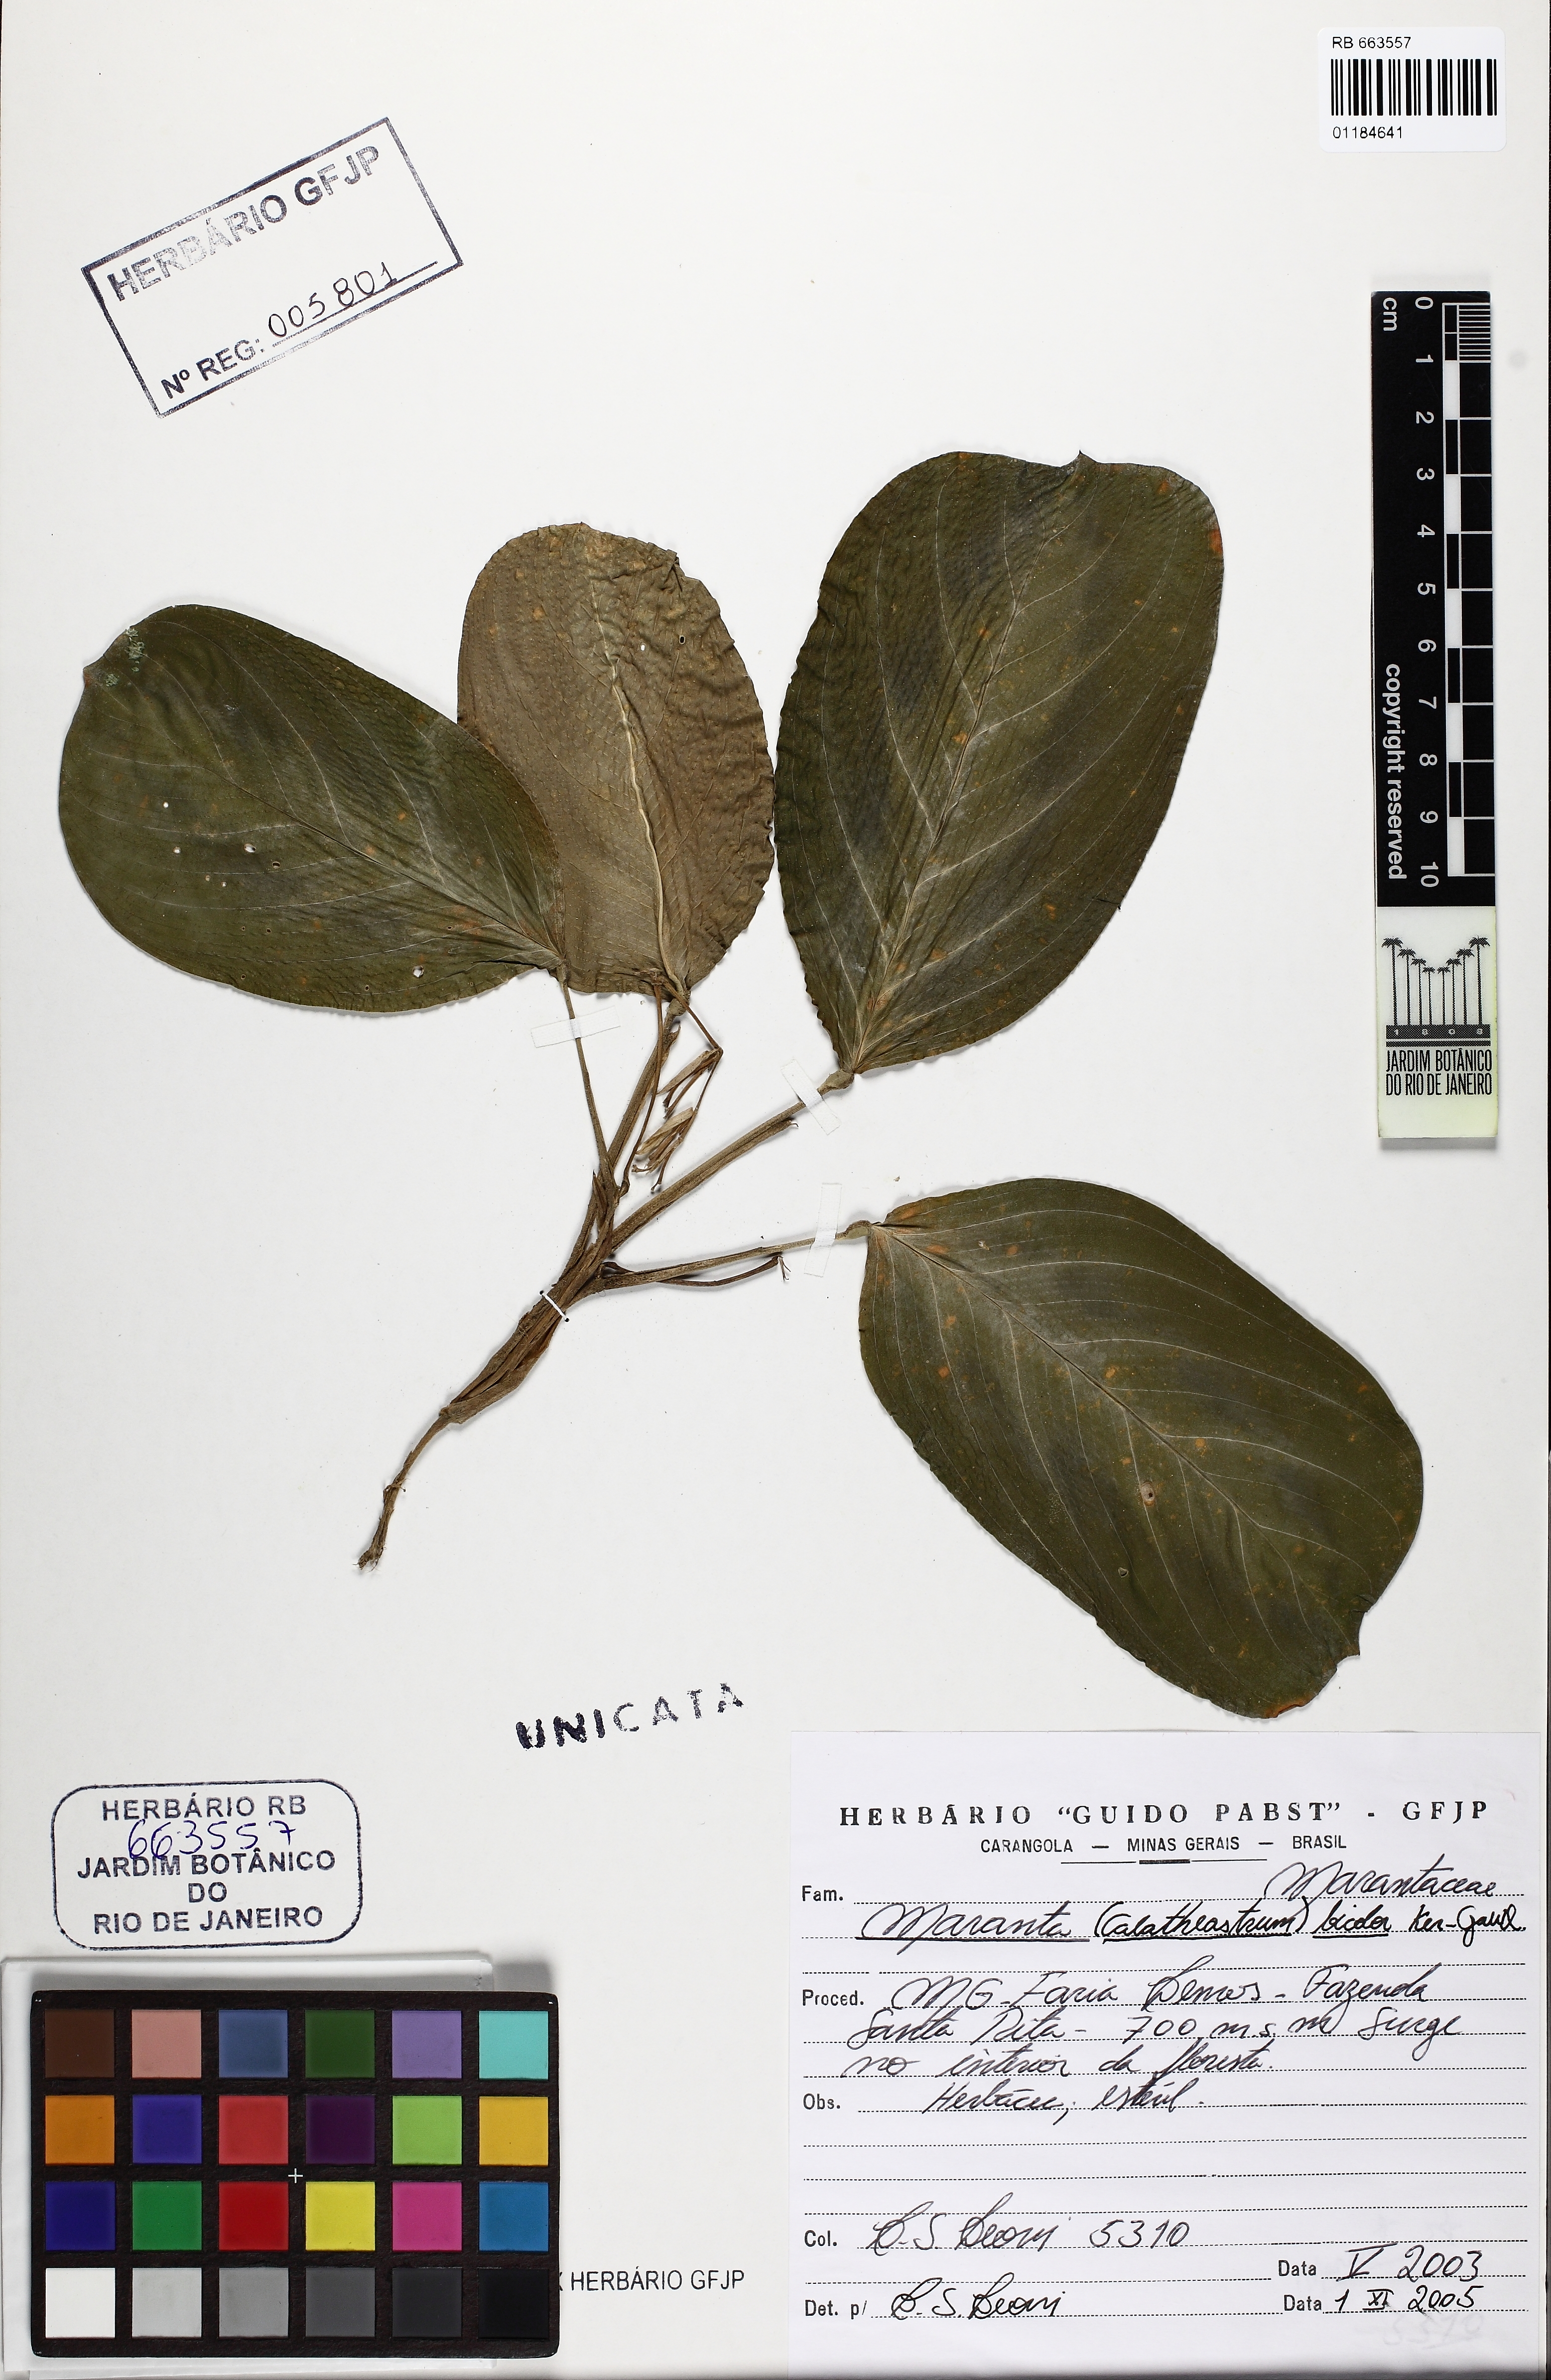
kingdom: Plantae
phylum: Tracheophyta
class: Liliopsida
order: Zingiberales
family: Marantaceae
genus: Maranta
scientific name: Maranta cristata
